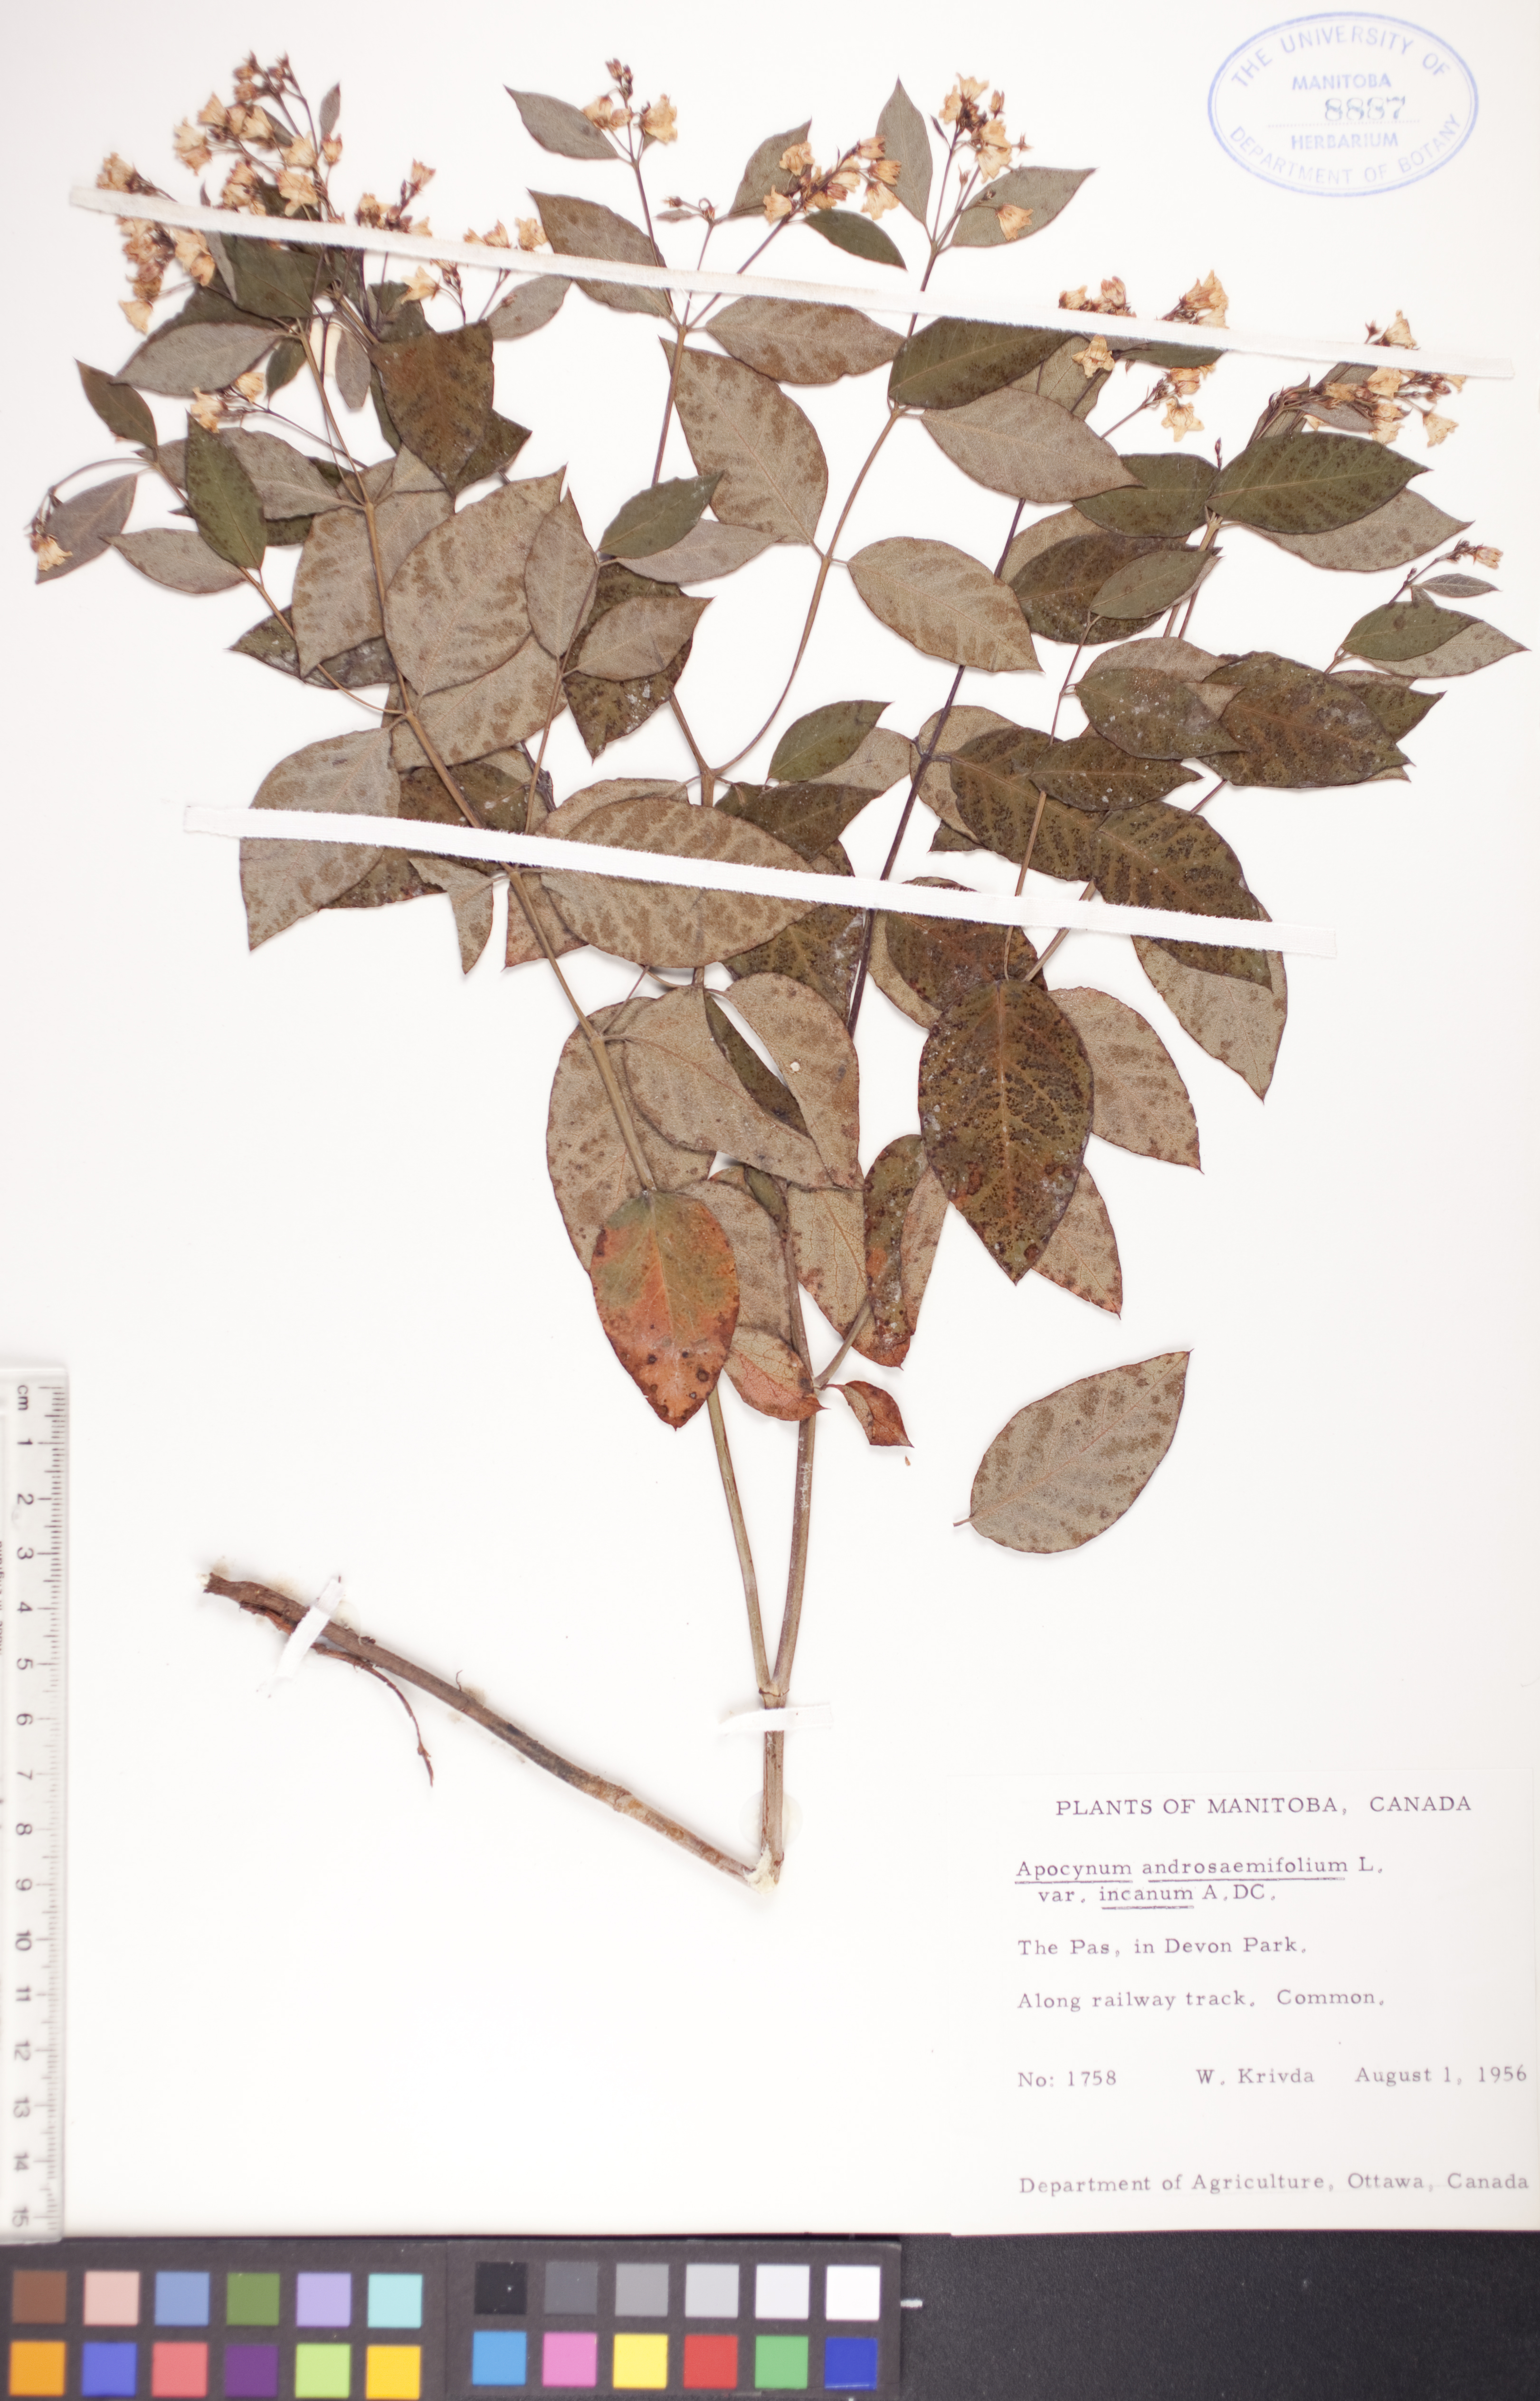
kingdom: Plantae
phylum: Tracheophyta
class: Magnoliopsida
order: Gentianales
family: Apocynaceae
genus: Apocynum
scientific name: Apocynum androsaemifolium
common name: Spreading dogbane
